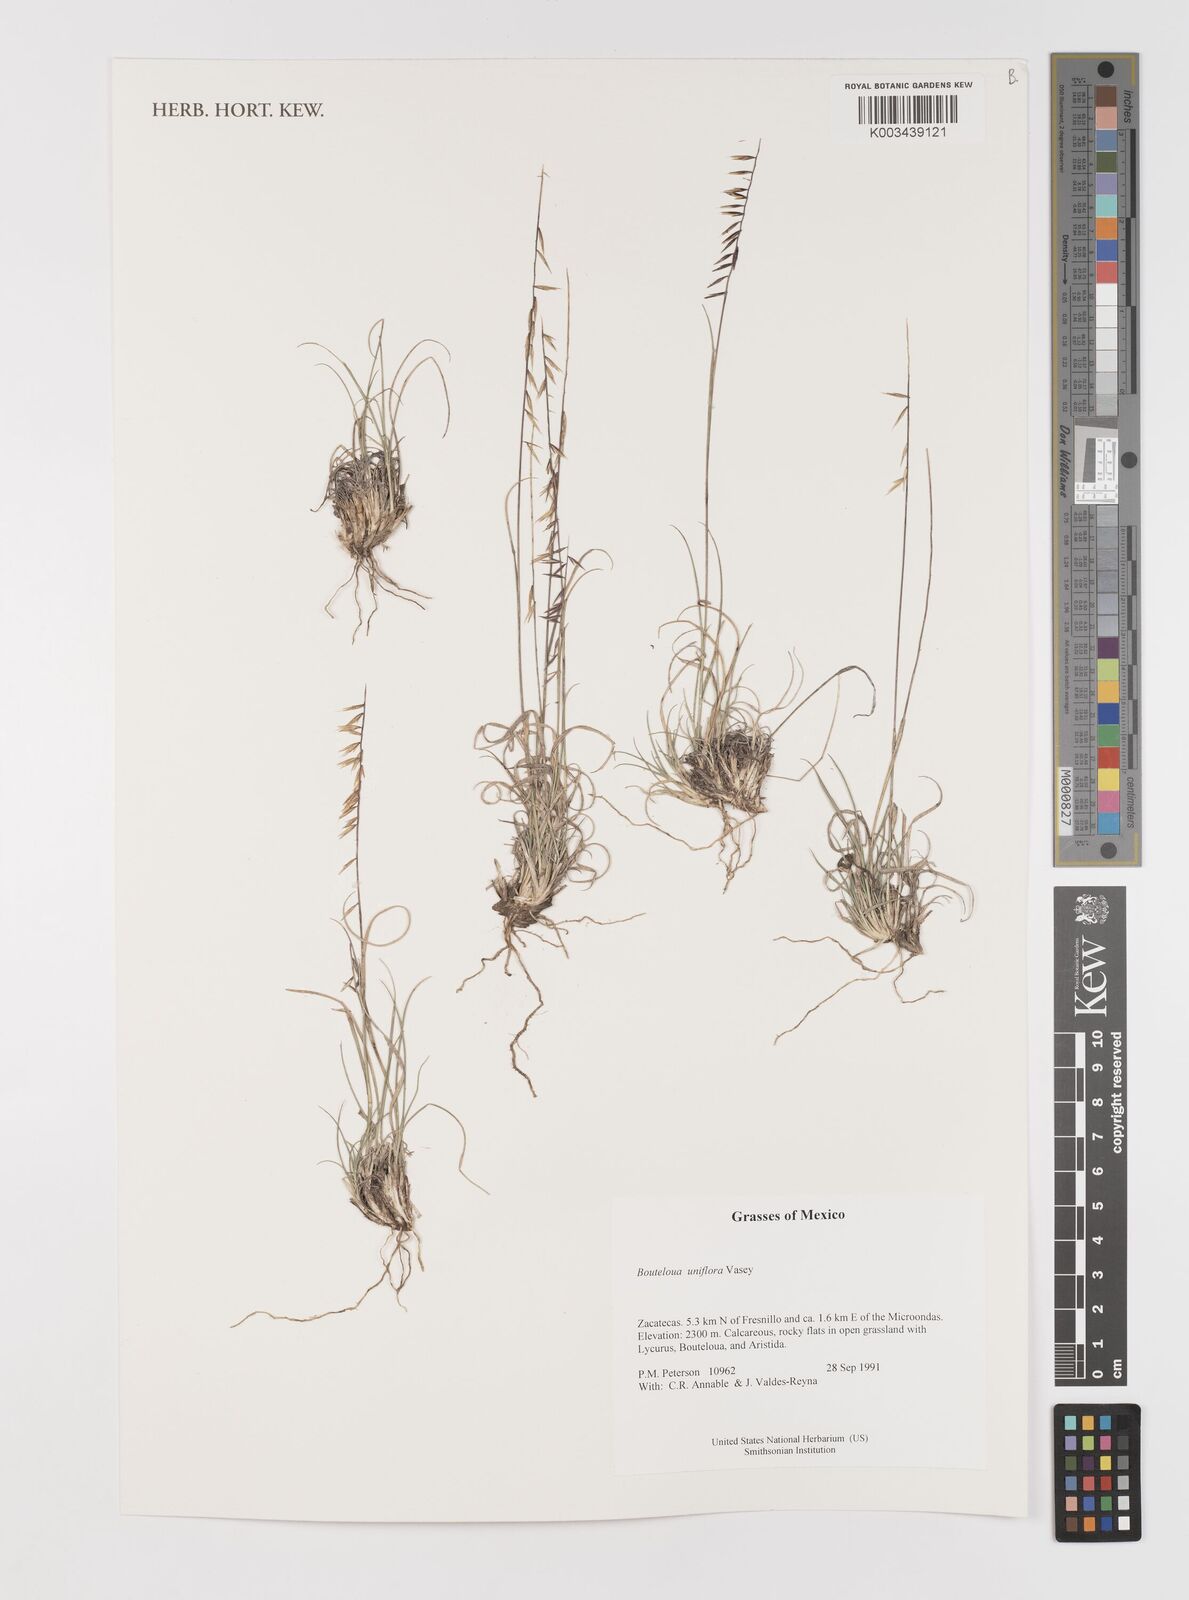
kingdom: Plantae
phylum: Tracheophyta
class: Liliopsida
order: Poales
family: Poaceae
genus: Bouteloua
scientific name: Bouteloua uniflora
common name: Neally's grama
